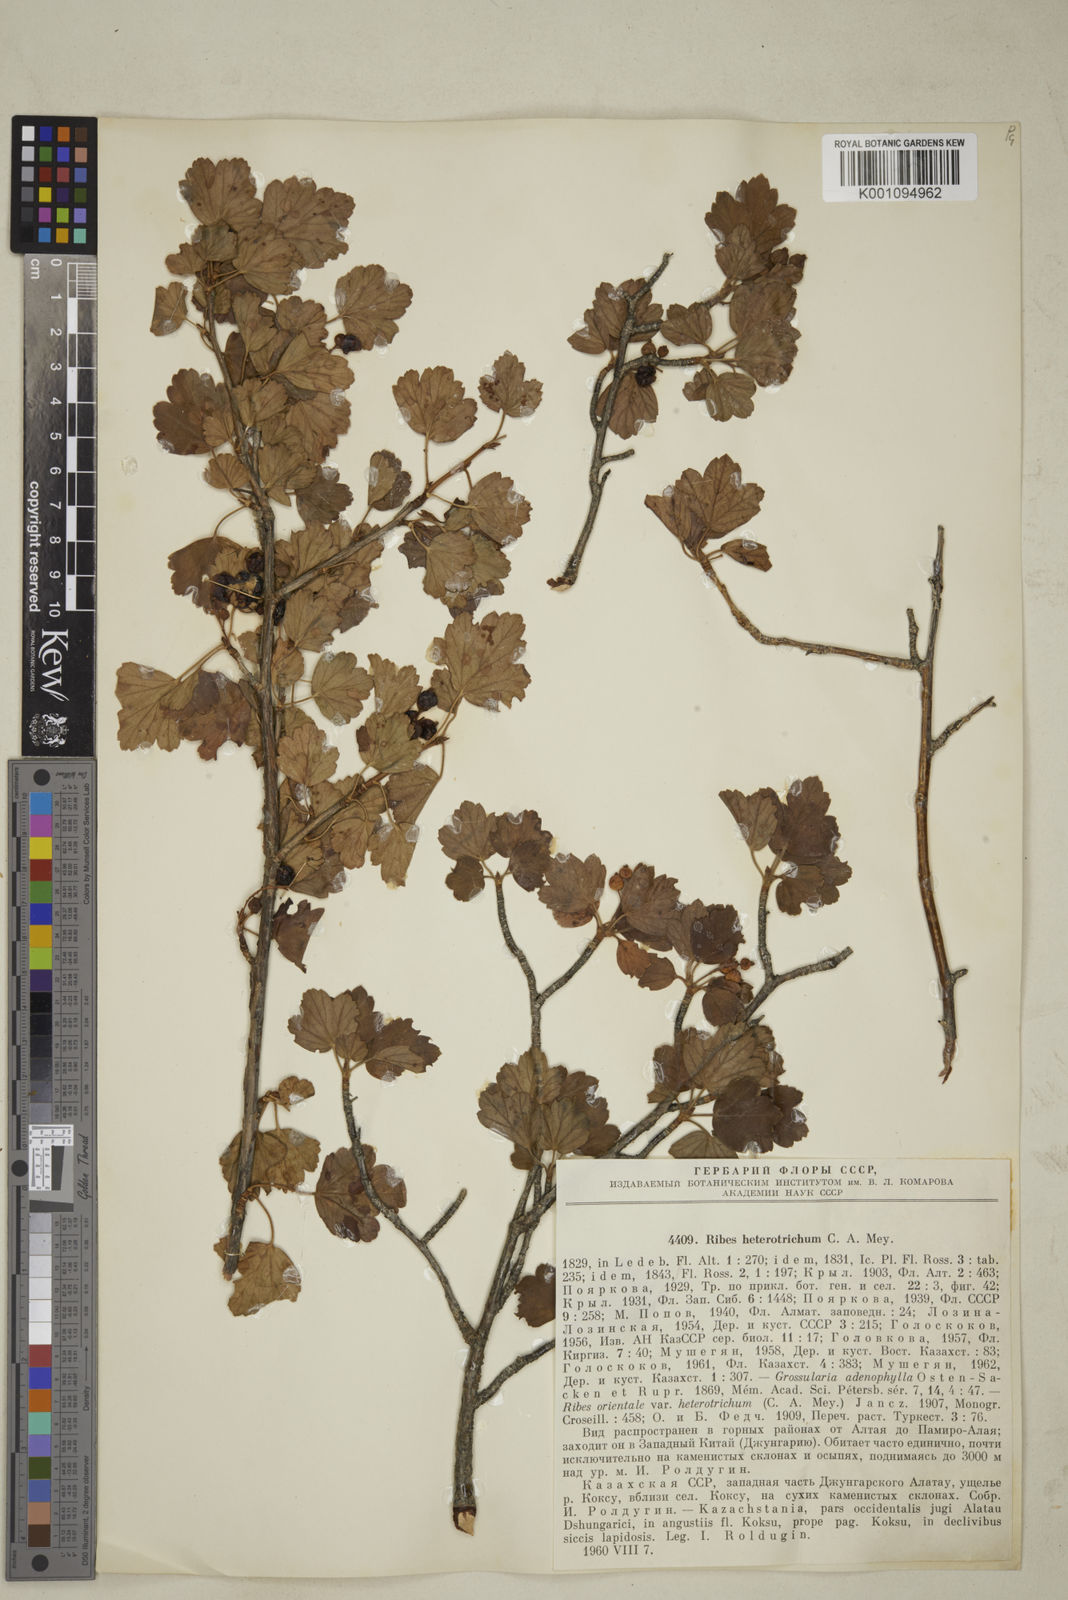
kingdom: Plantae
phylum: Tracheophyta
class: Magnoliopsida
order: Saxifragales
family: Grossulariaceae
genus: Ribes
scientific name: Ribes heterotrichum
